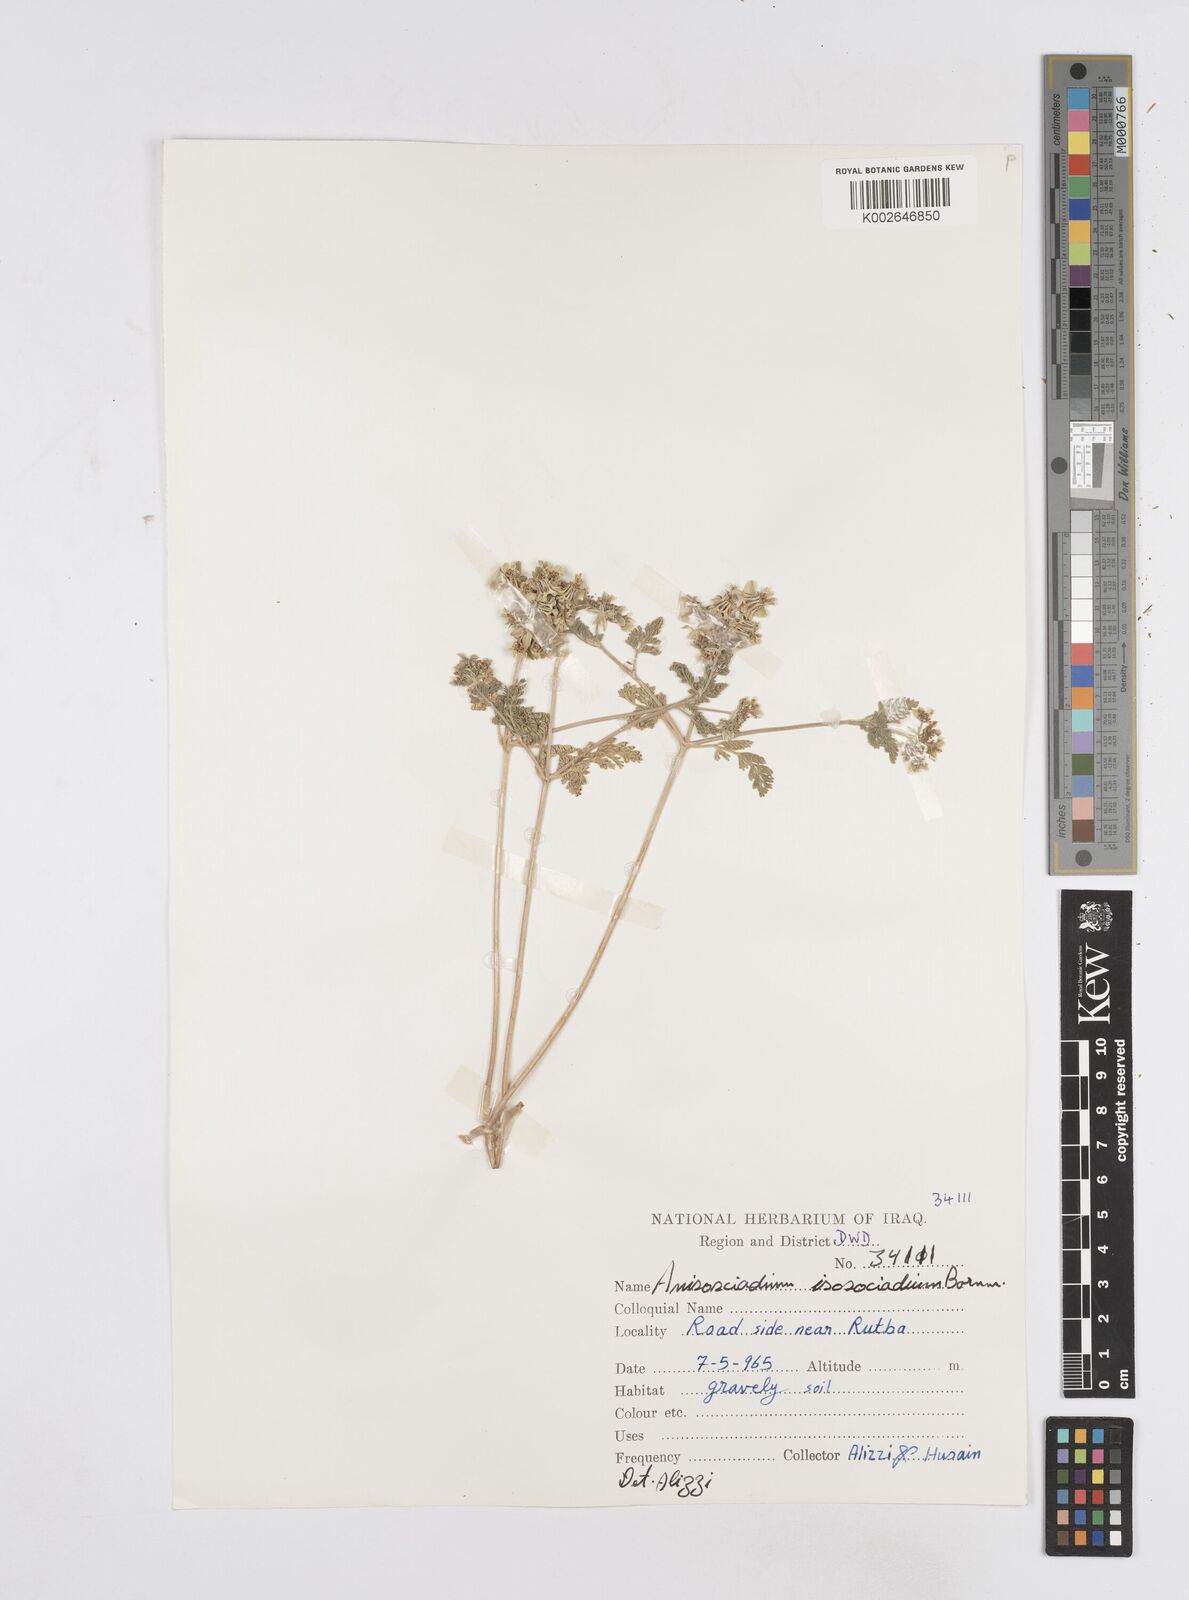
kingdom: Plantae
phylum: Tracheophyta
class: Magnoliopsida
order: Apiales
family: Apiaceae
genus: Anisosciadium
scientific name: Anisosciadium isosciadium
